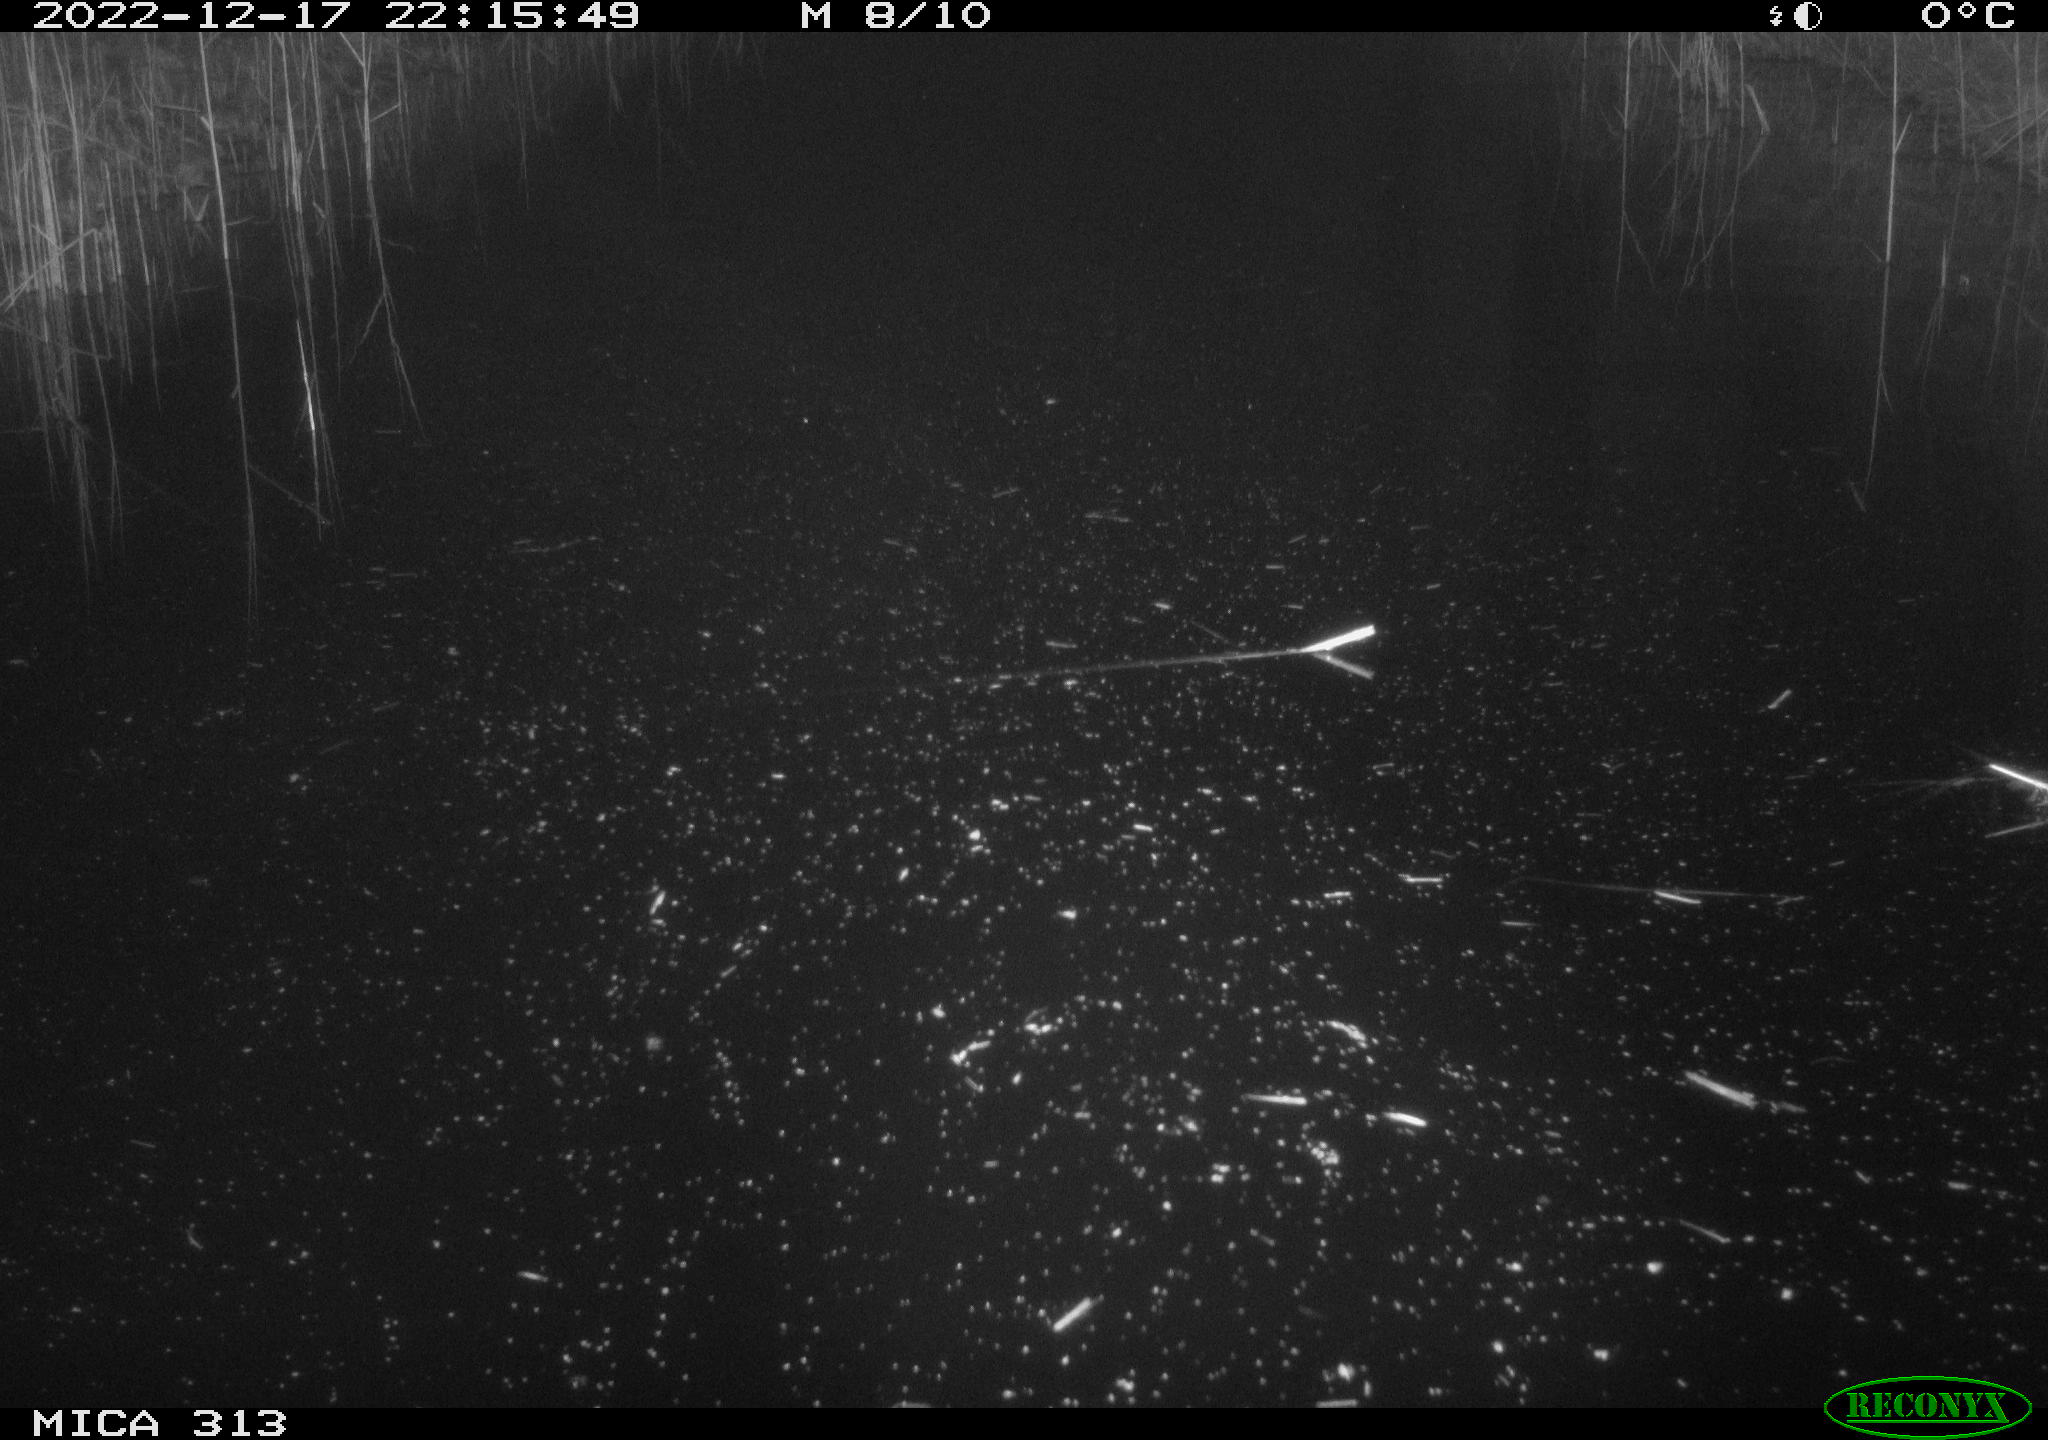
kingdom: Animalia
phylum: Chordata
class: Aves
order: Gruiformes
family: Rallidae
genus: Gallinula
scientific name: Gallinula chloropus
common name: Common moorhen
